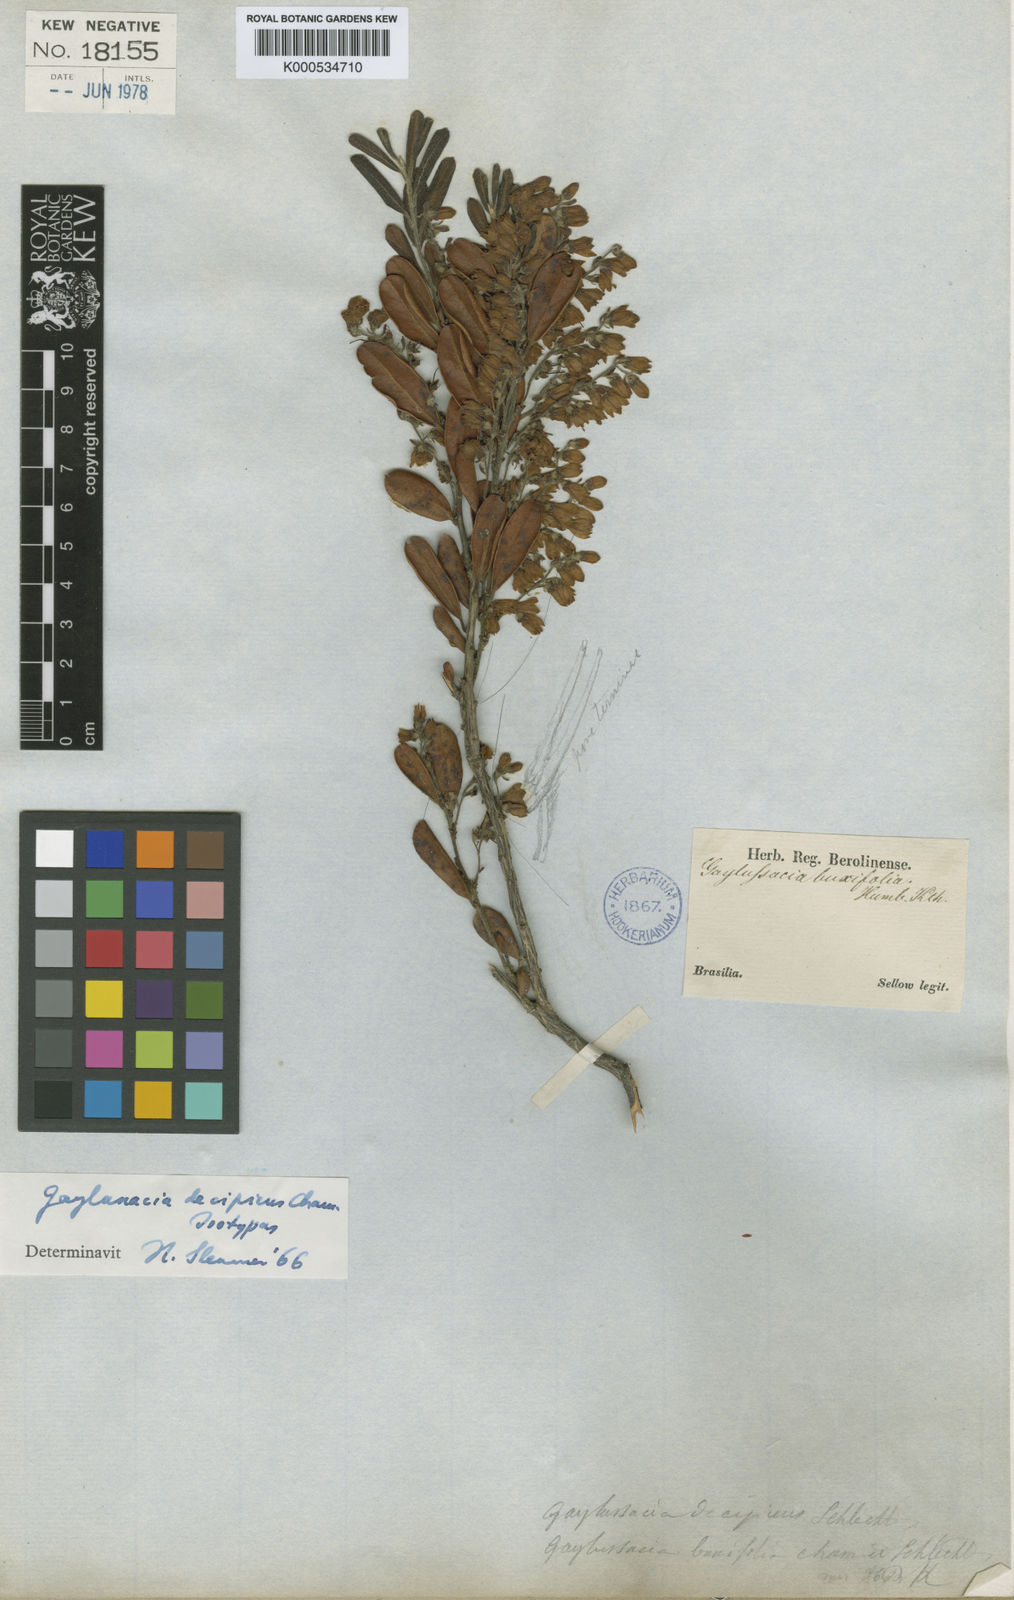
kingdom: Plantae
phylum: Tracheophyta
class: Magnoliopsida
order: Ericales
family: Ericaceae
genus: Gaylussacia
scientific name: Gaylussacia decipiens
